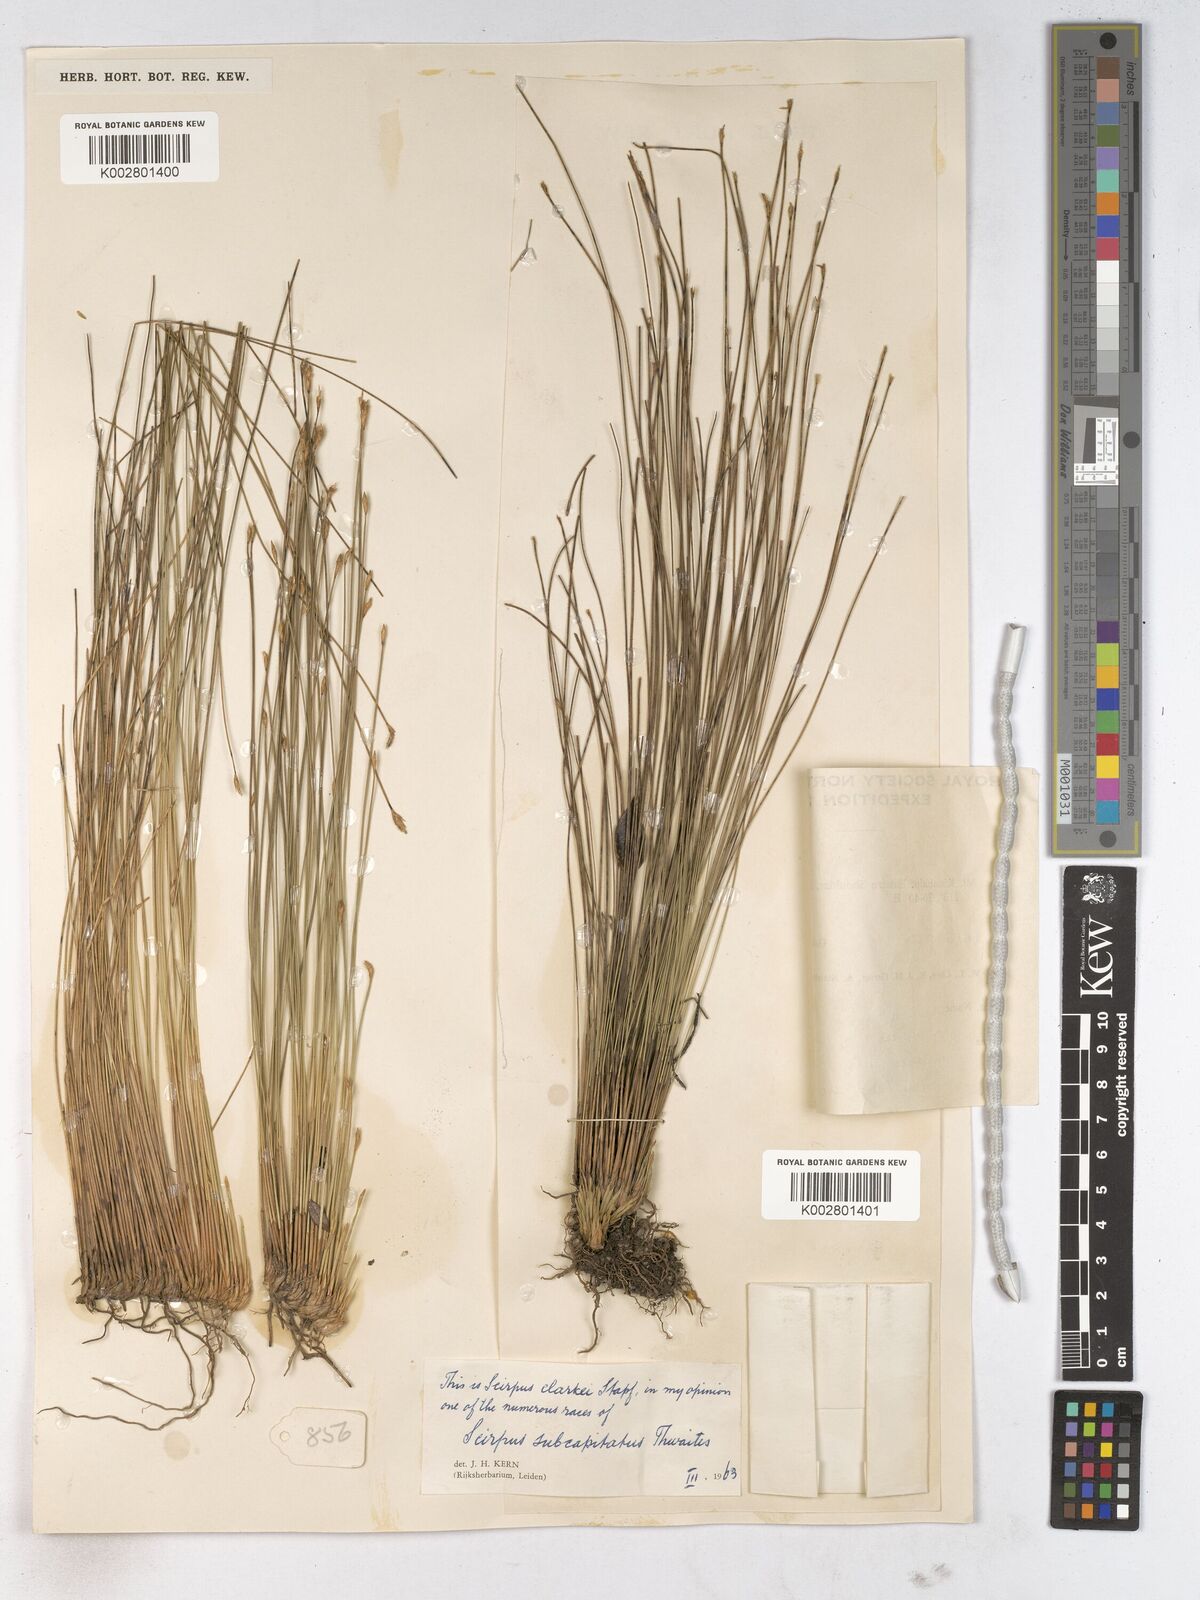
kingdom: Plantae
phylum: Tracheophyta
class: Liliopsida
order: Poales
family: Cyperaceae
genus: Trichophorum
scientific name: Trichophorum subcapitatum
